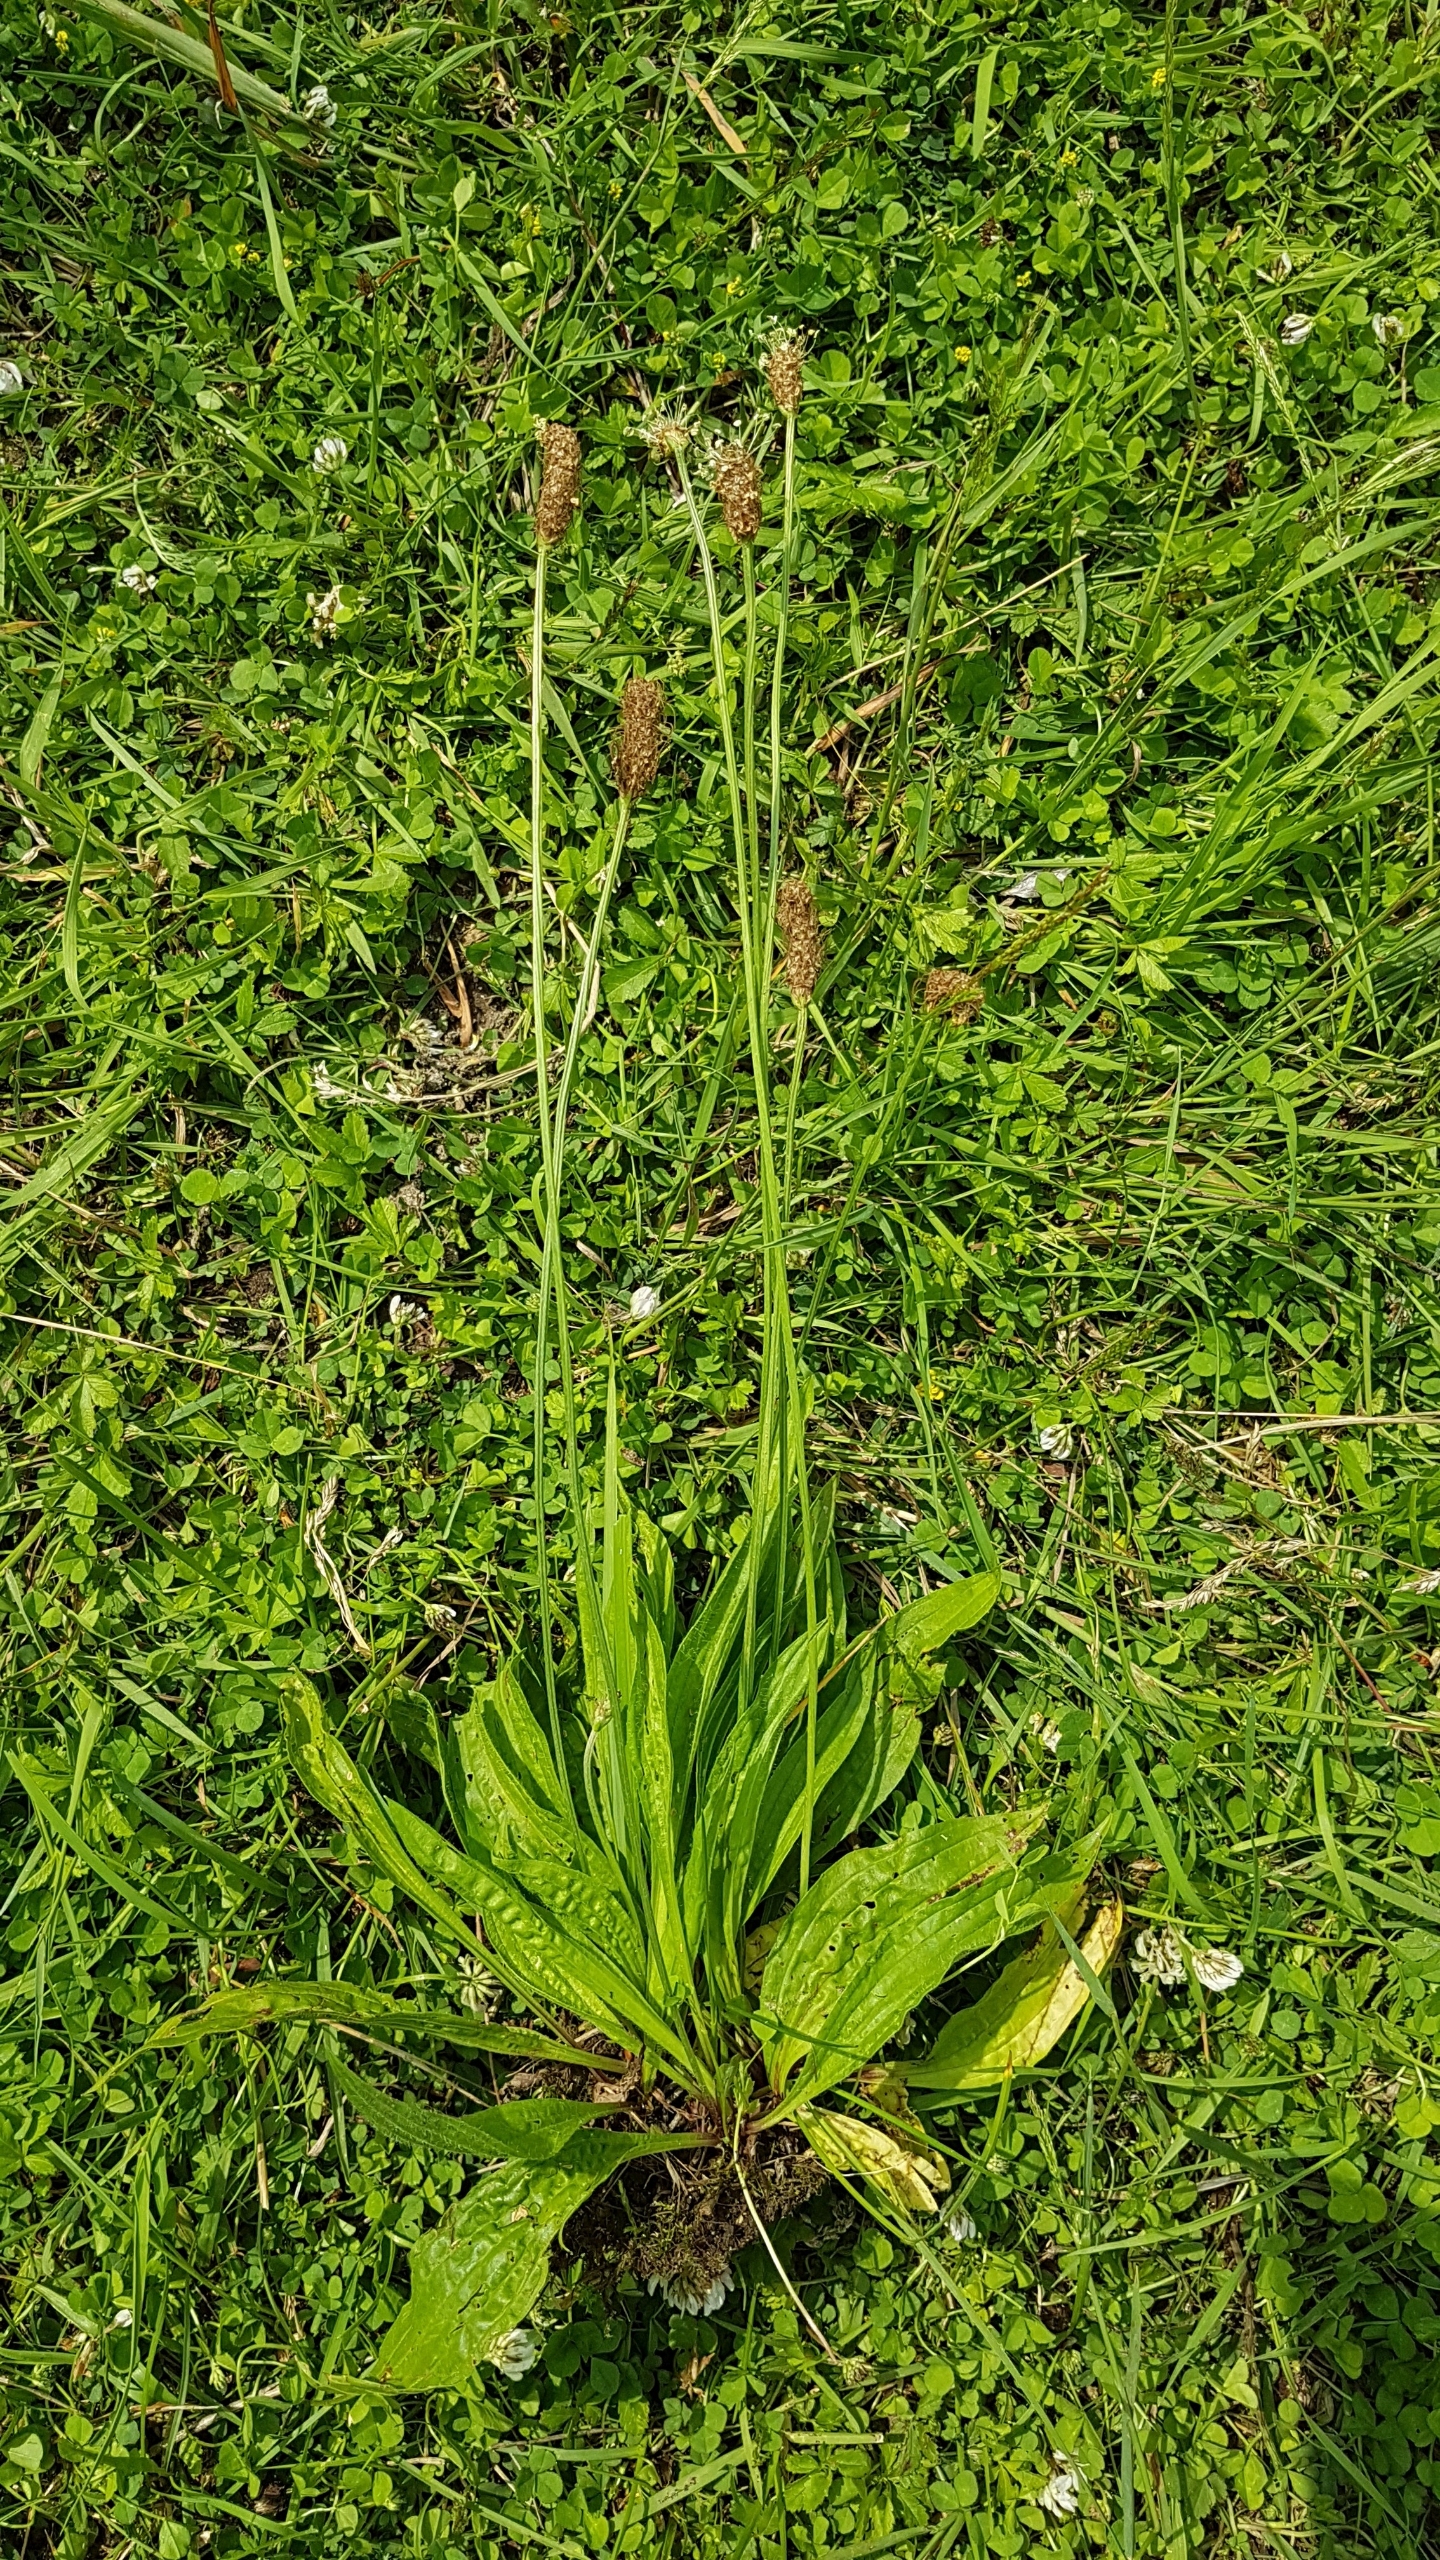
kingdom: Plantae
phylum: Tracheophyta
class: Magnoliopsida
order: Lamiales
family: Plantaginaceae
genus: Plantago
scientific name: Plantago lanceolata
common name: Lancet-vejbred
